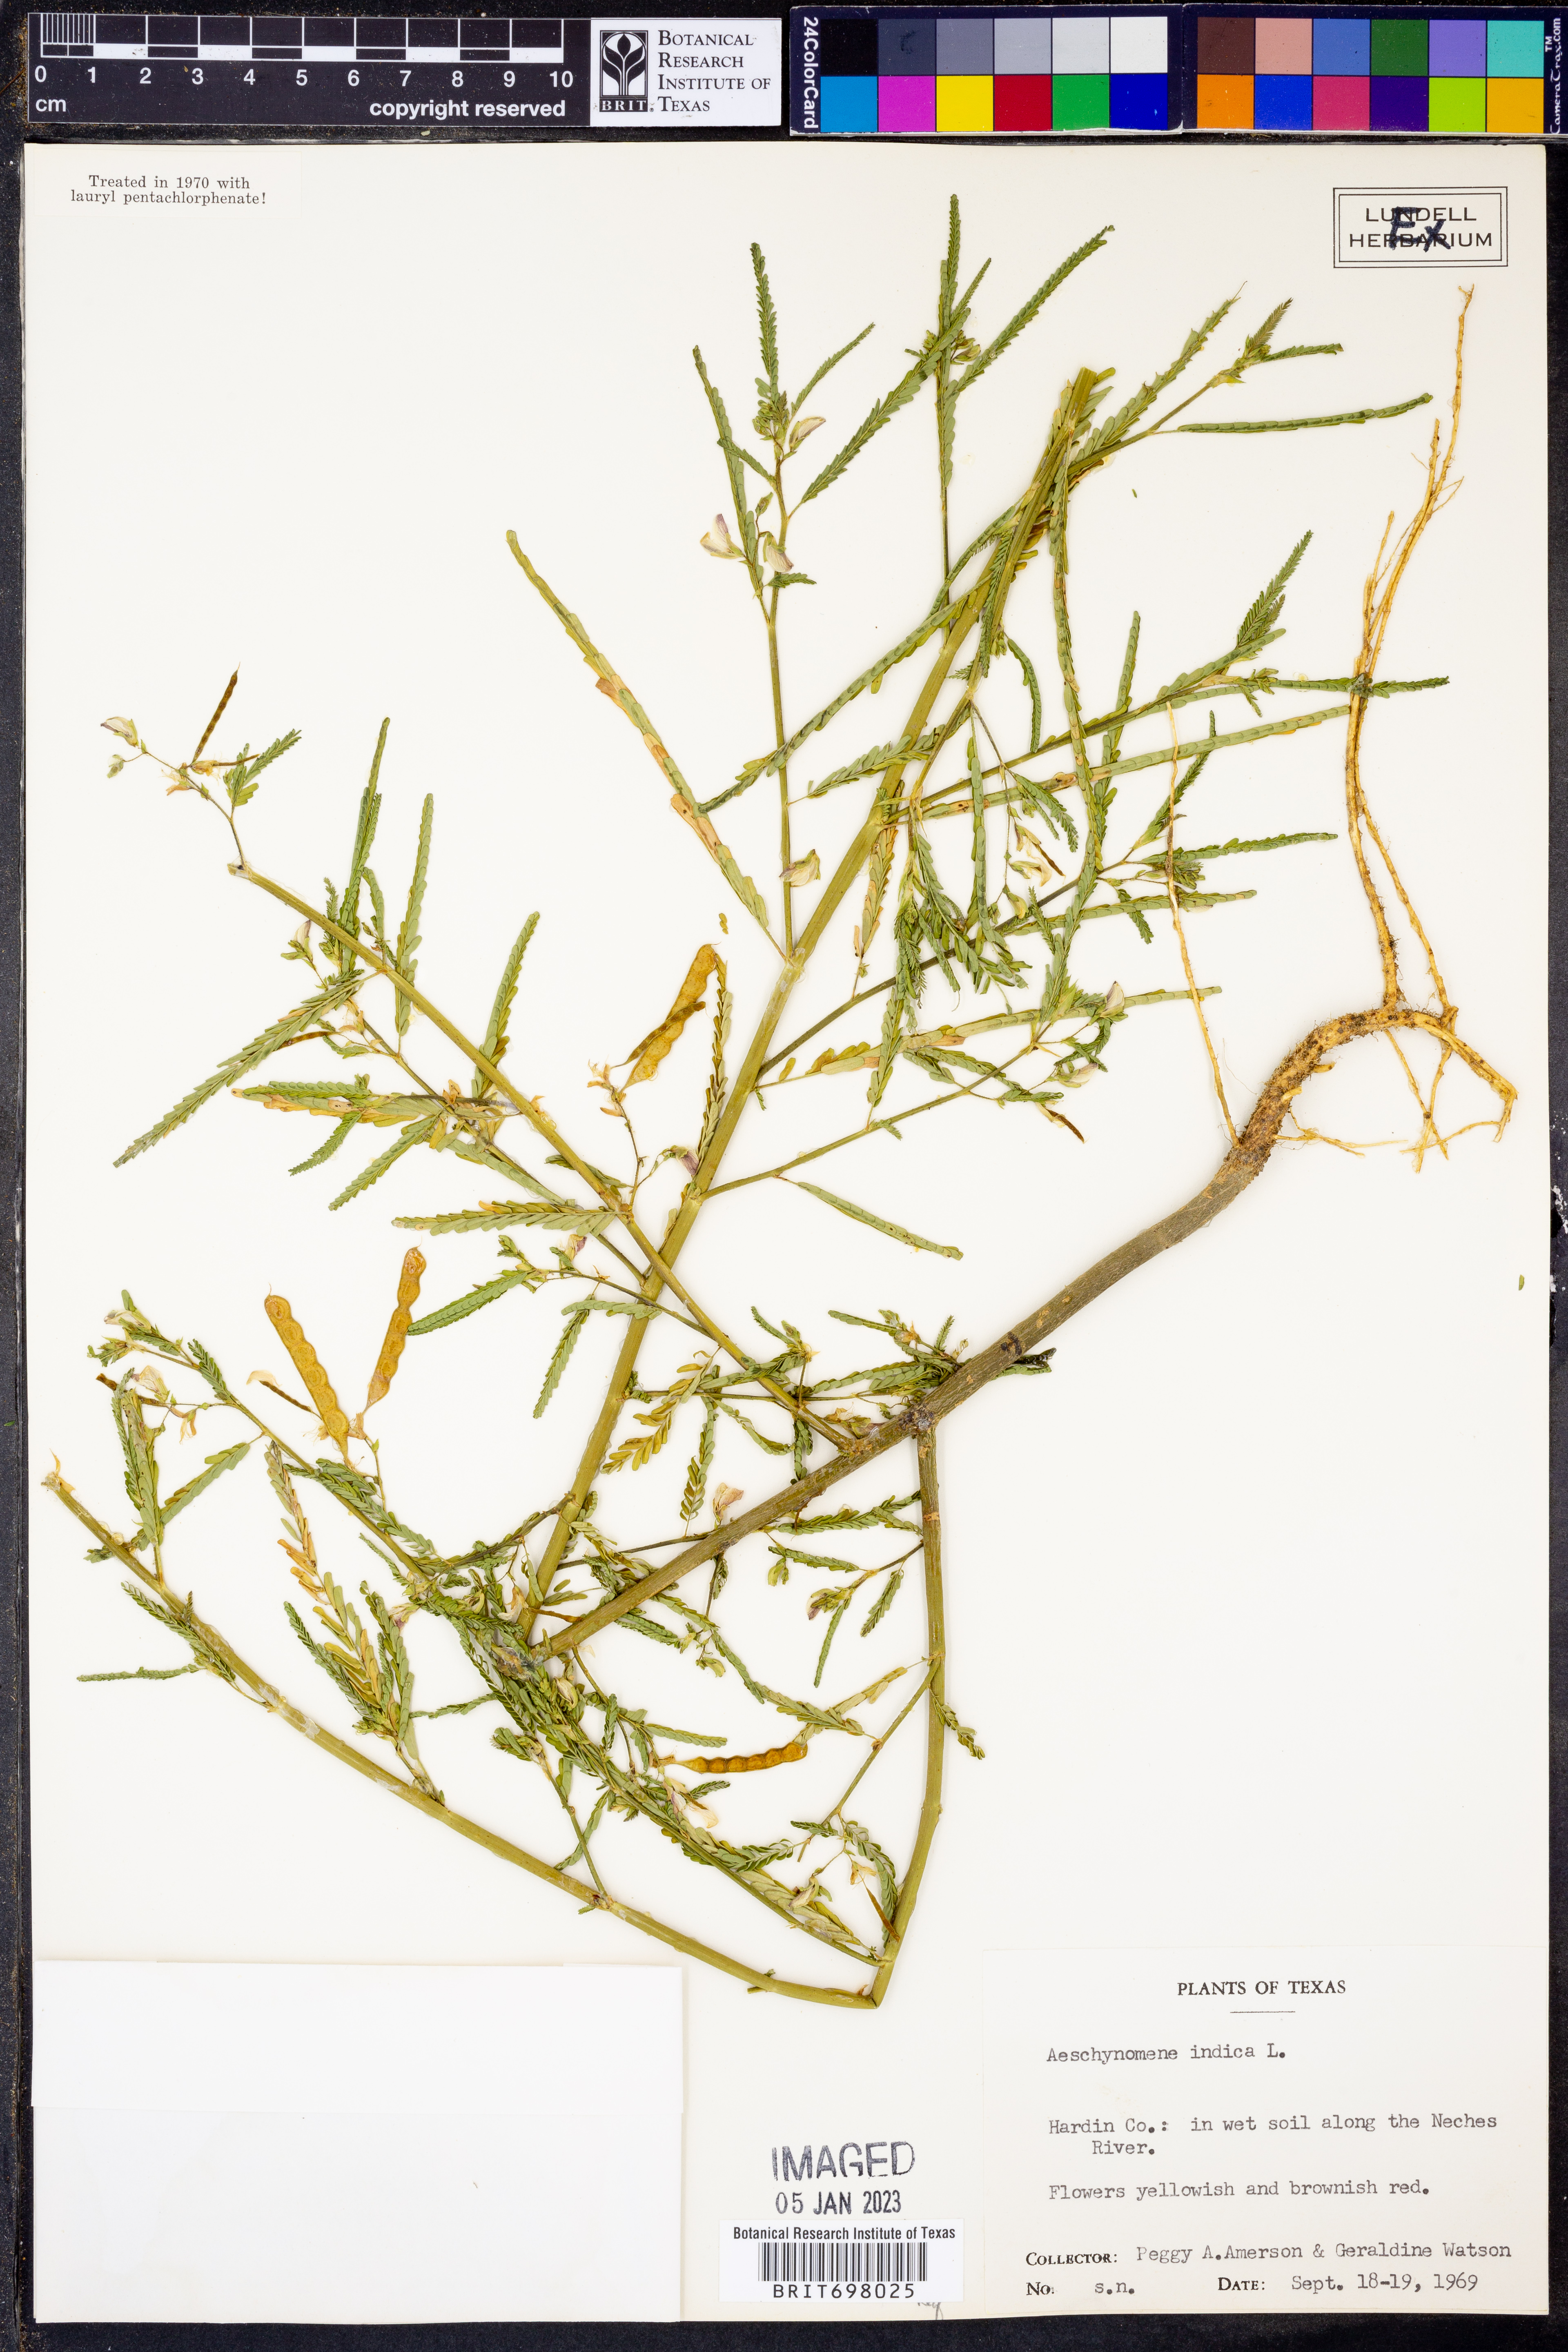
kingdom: Plantae
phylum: Tracheophyta
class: Magnoliopsida
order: Fabales
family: Fabaceae
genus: Aeschynomene
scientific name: Aeschynomene indica
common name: Indian jointvetch
